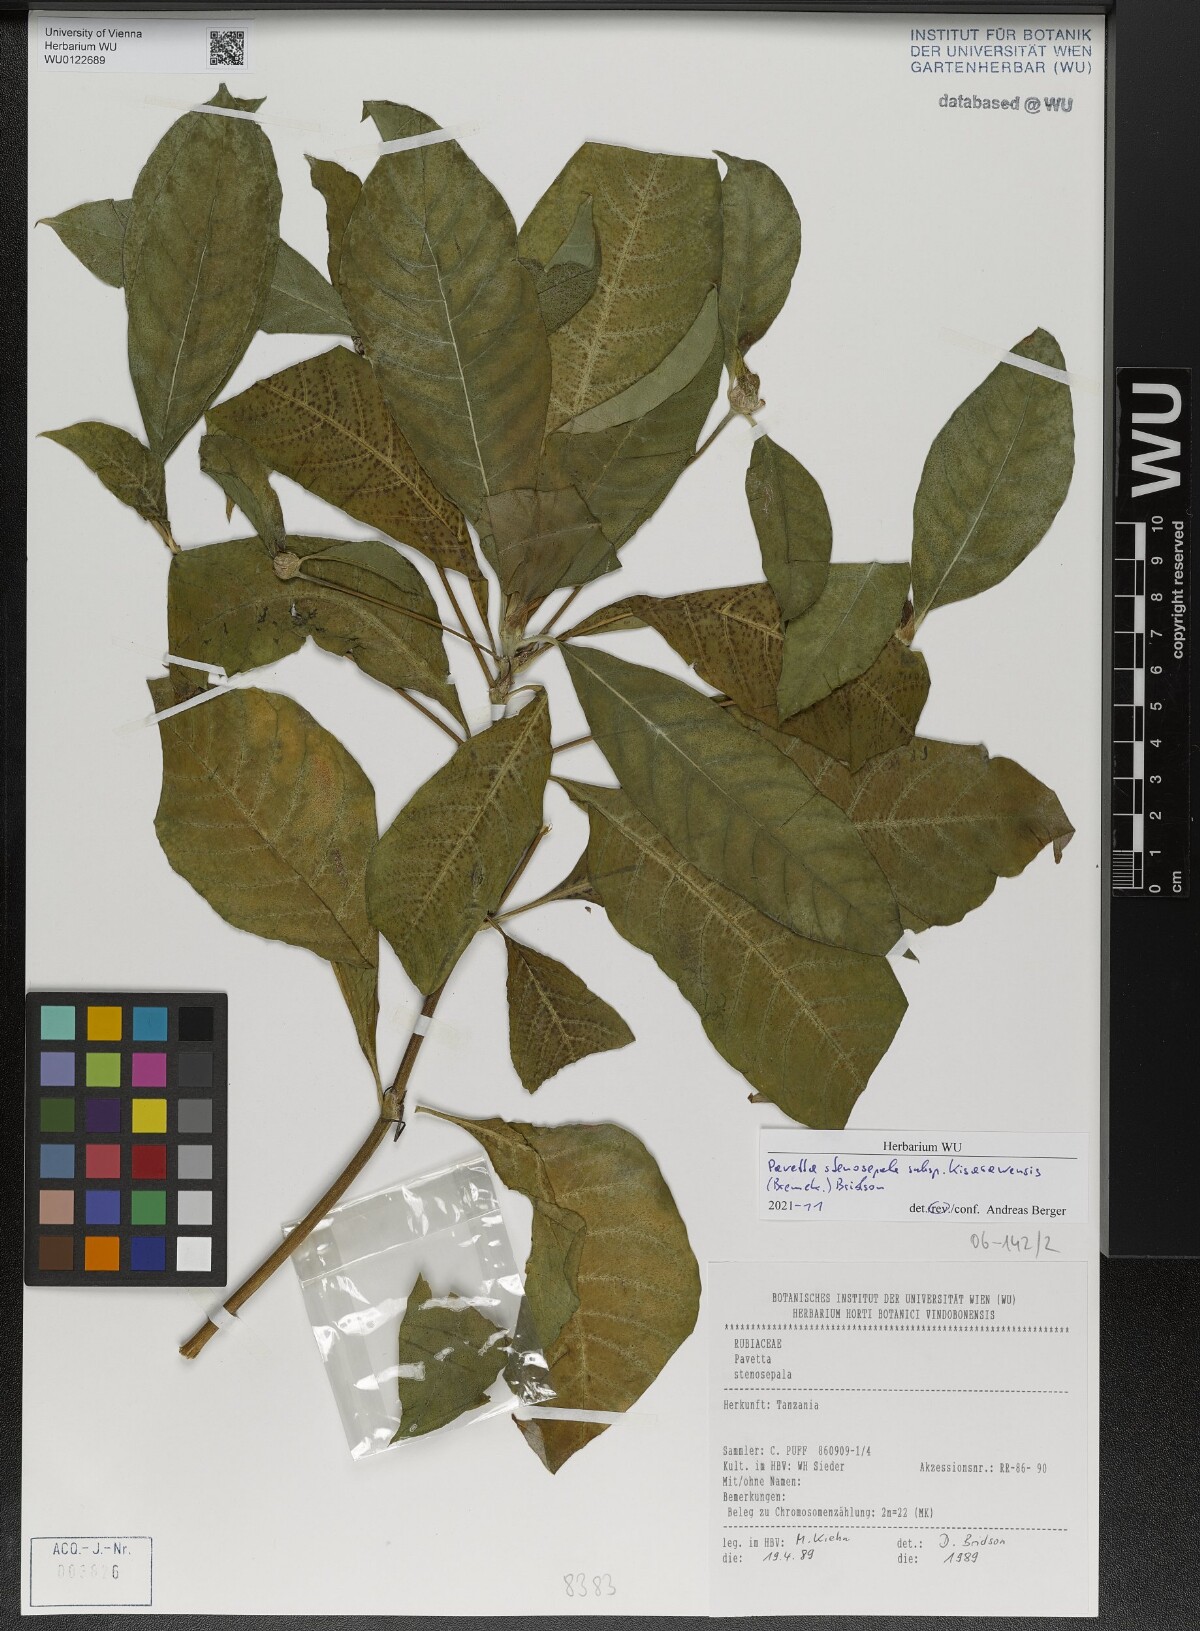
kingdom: Plantae
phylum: Tracheophyta
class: Magnoliopsida
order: Gentianales
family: Rubiaceae
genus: Pavetta
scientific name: Pavetta stenosepala
